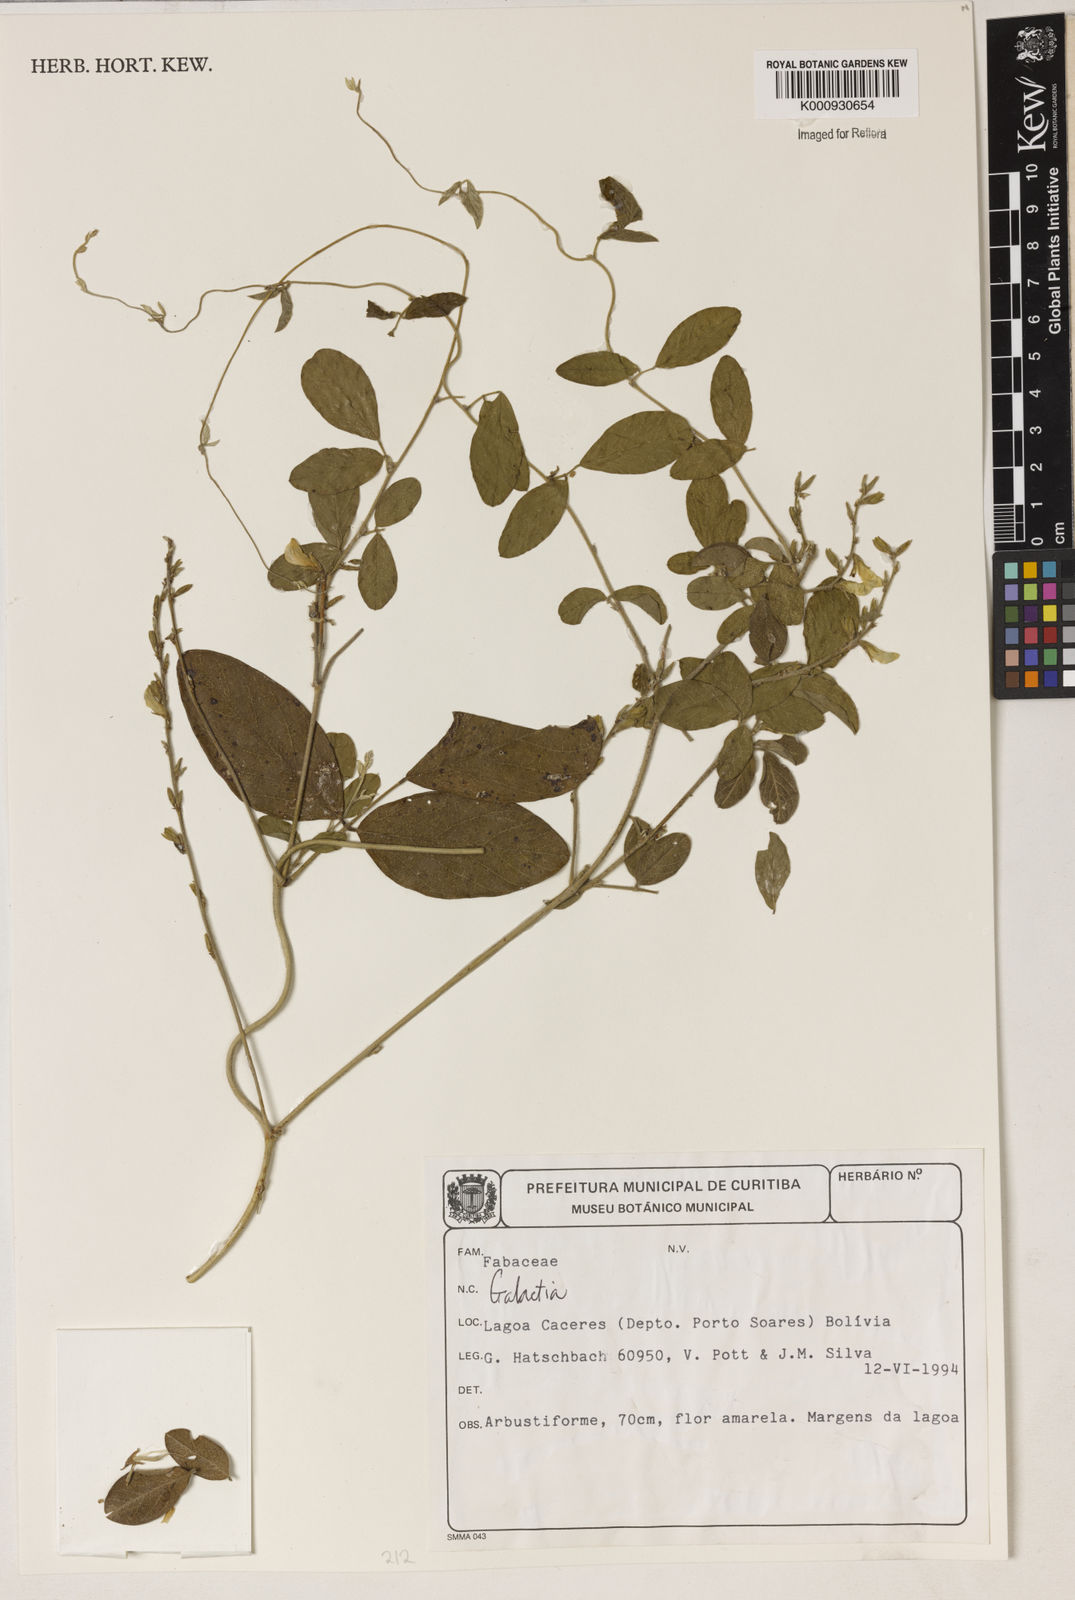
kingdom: Plantae
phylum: Tracheophyta
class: Magnoliopsida
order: Fabales
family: Fabaceae
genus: Galactia
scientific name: Galactia
